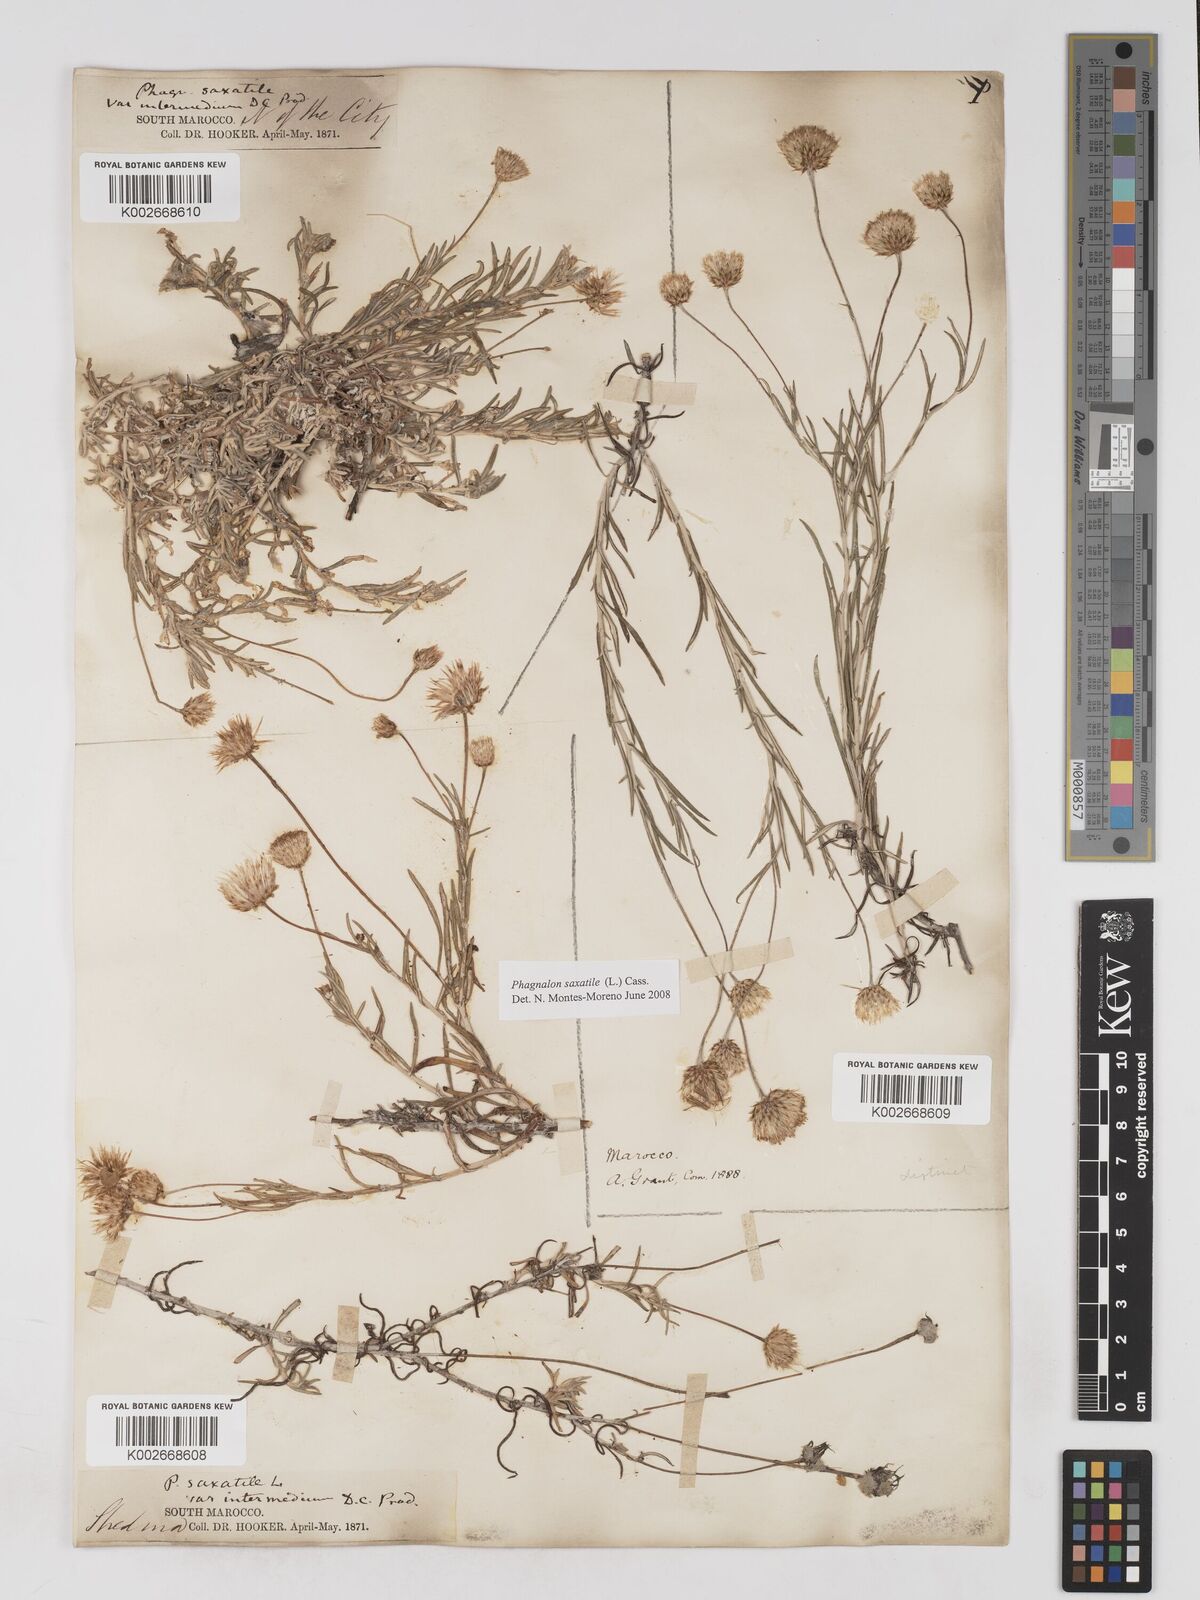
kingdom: Plantae
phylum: Tracheophyta
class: Magnoliopsida
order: Asterales
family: Asteraceae
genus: Phagnalon
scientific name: Phagnalon saxatile
